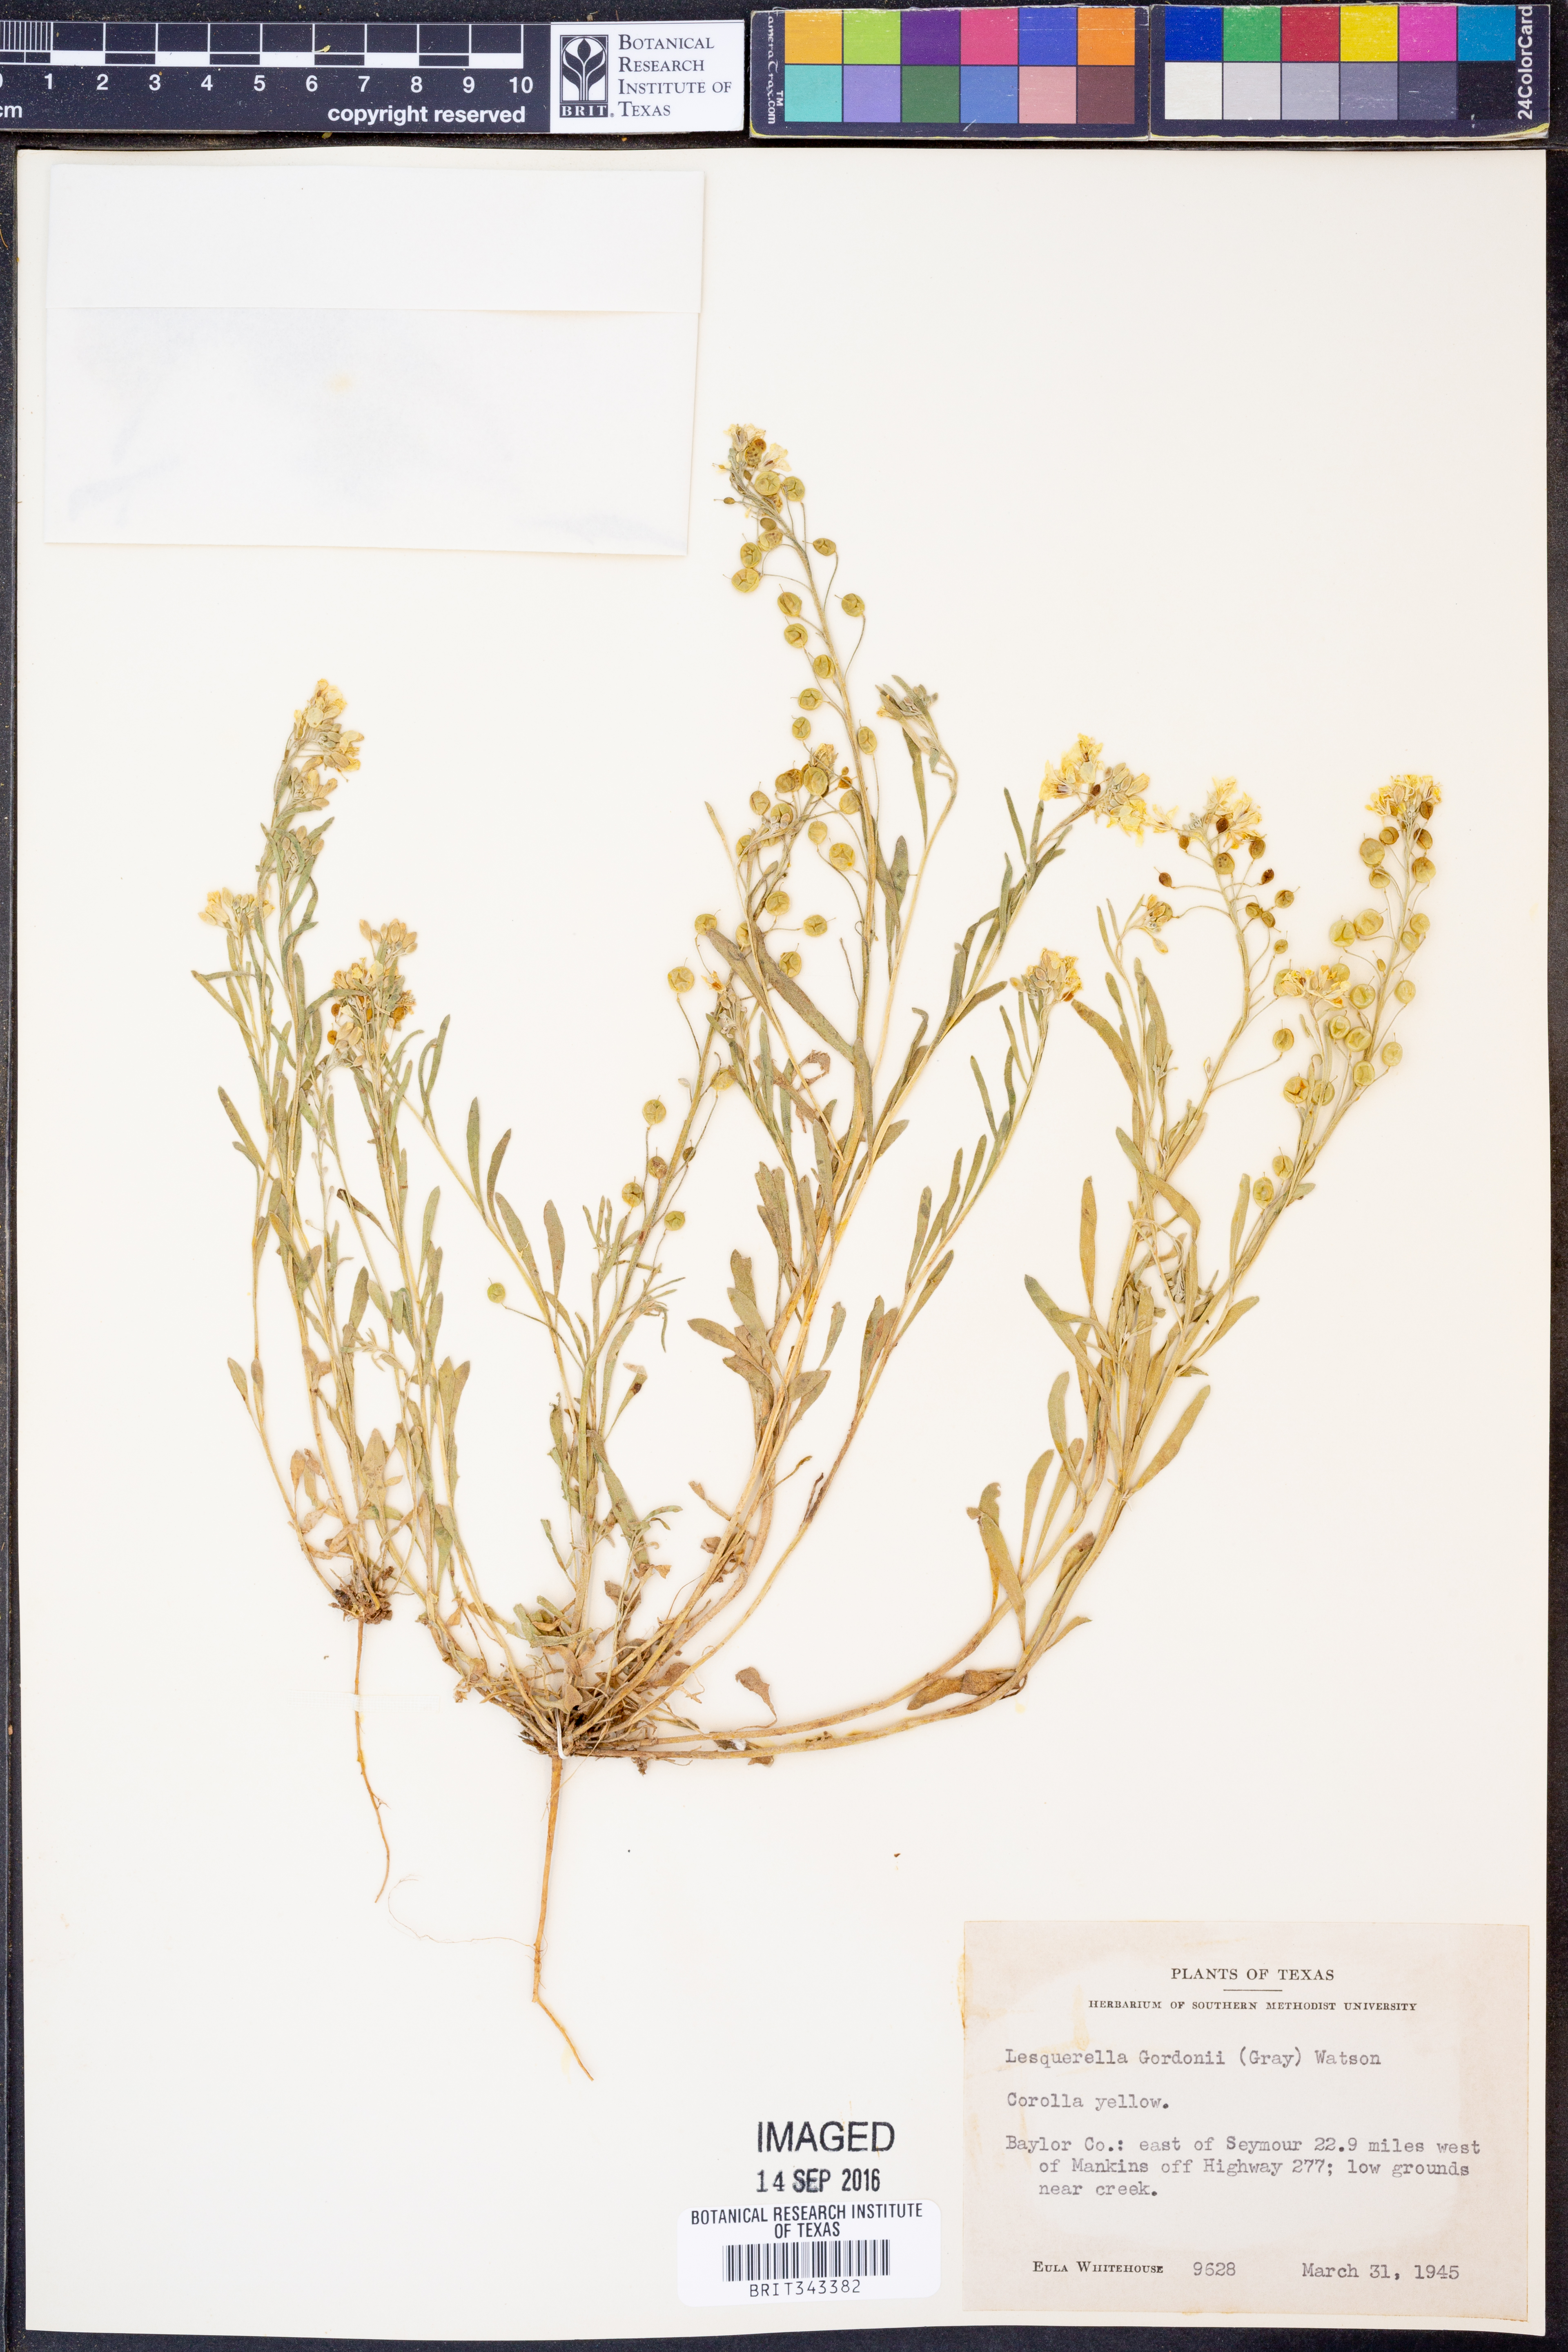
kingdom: Plantae
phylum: Tracheophyta
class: Magnoliopsida
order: Brassicales
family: Brassicaceae
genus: Physaria
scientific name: Physaria gordonii
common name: Gordon's bladderpod
